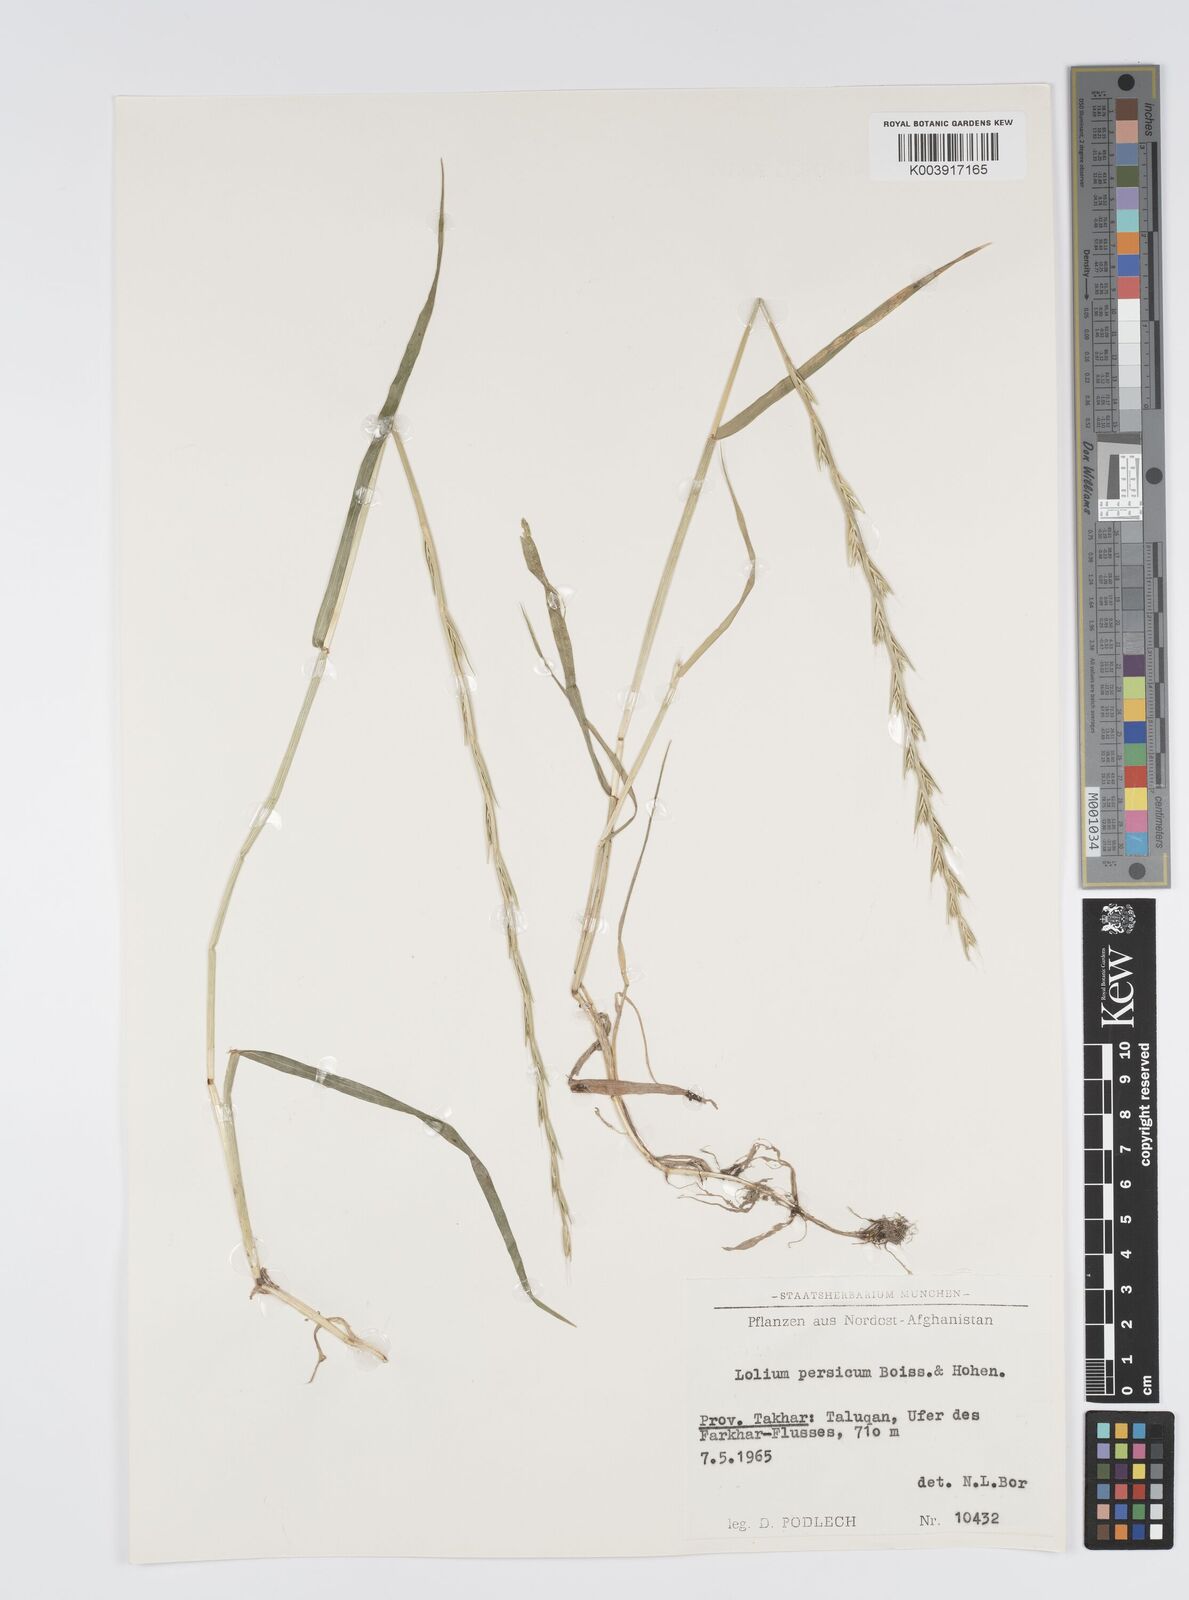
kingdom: Plantae
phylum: Tracheophyta
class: Liliopsida
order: Poales
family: Poaceae
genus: Lolium
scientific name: Lolium persicum
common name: Persian ryegrass
